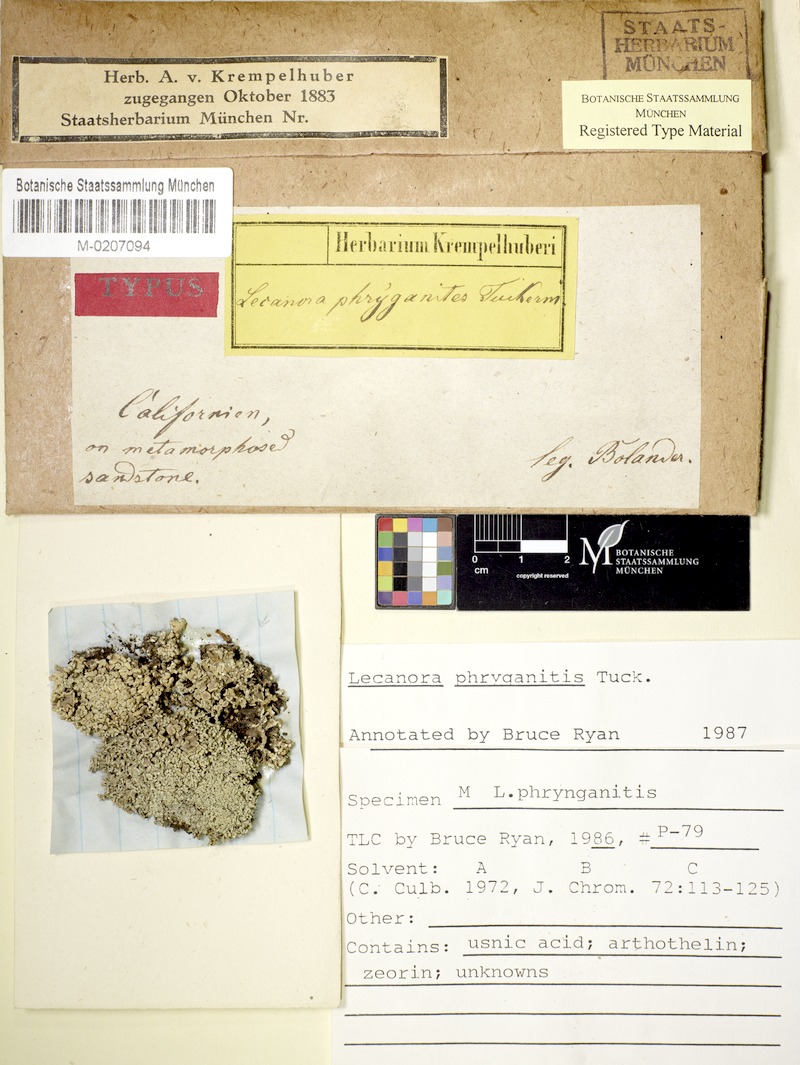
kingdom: Fungi
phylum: Ascomycota
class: Lecanoromycetes
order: Teloschistales
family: Teloschistaceae
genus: Polycauliona
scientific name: Polycauliona phryganitis
